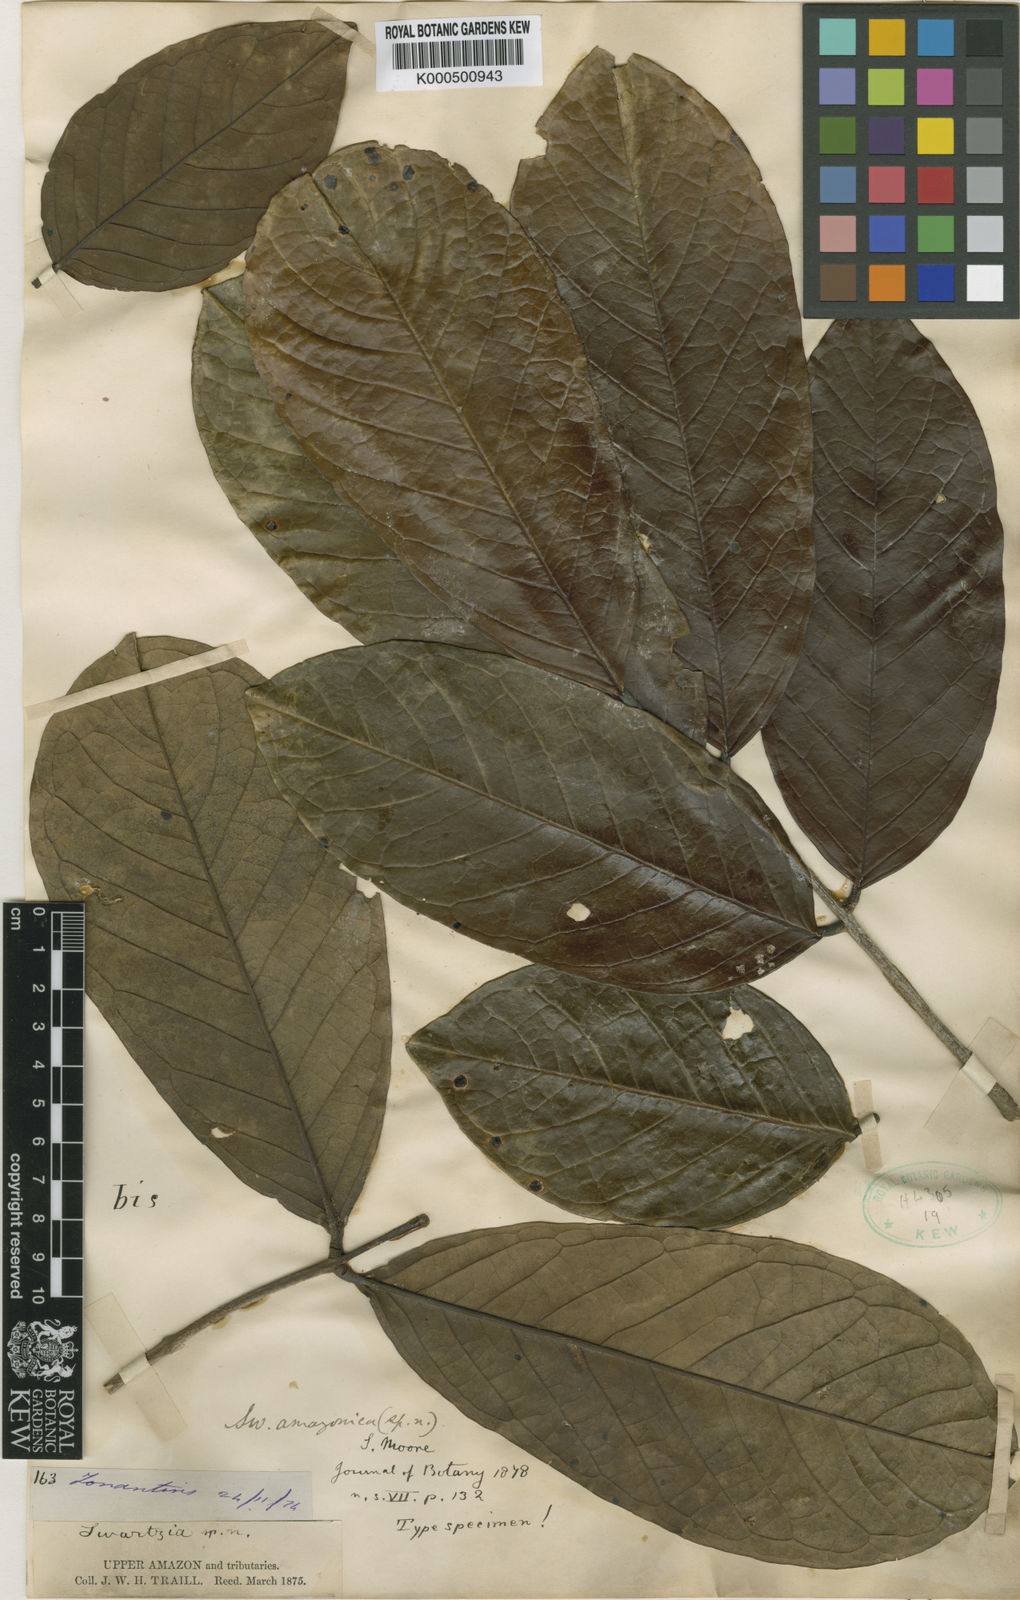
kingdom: Plantae
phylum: Tracheophyta
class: Magnoliopsida
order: Fabales
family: Fabaceae
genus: Swartzia
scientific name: Swartzia amazonica
